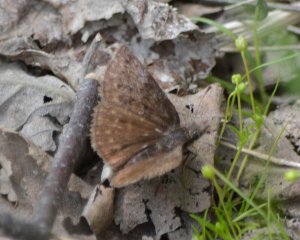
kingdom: Animalia
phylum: Arthropoda
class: Insecta
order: Lepidoptera
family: Hesperiidae
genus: Erynnis
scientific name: Erynnis icelus
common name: Dreamy Duskywing
